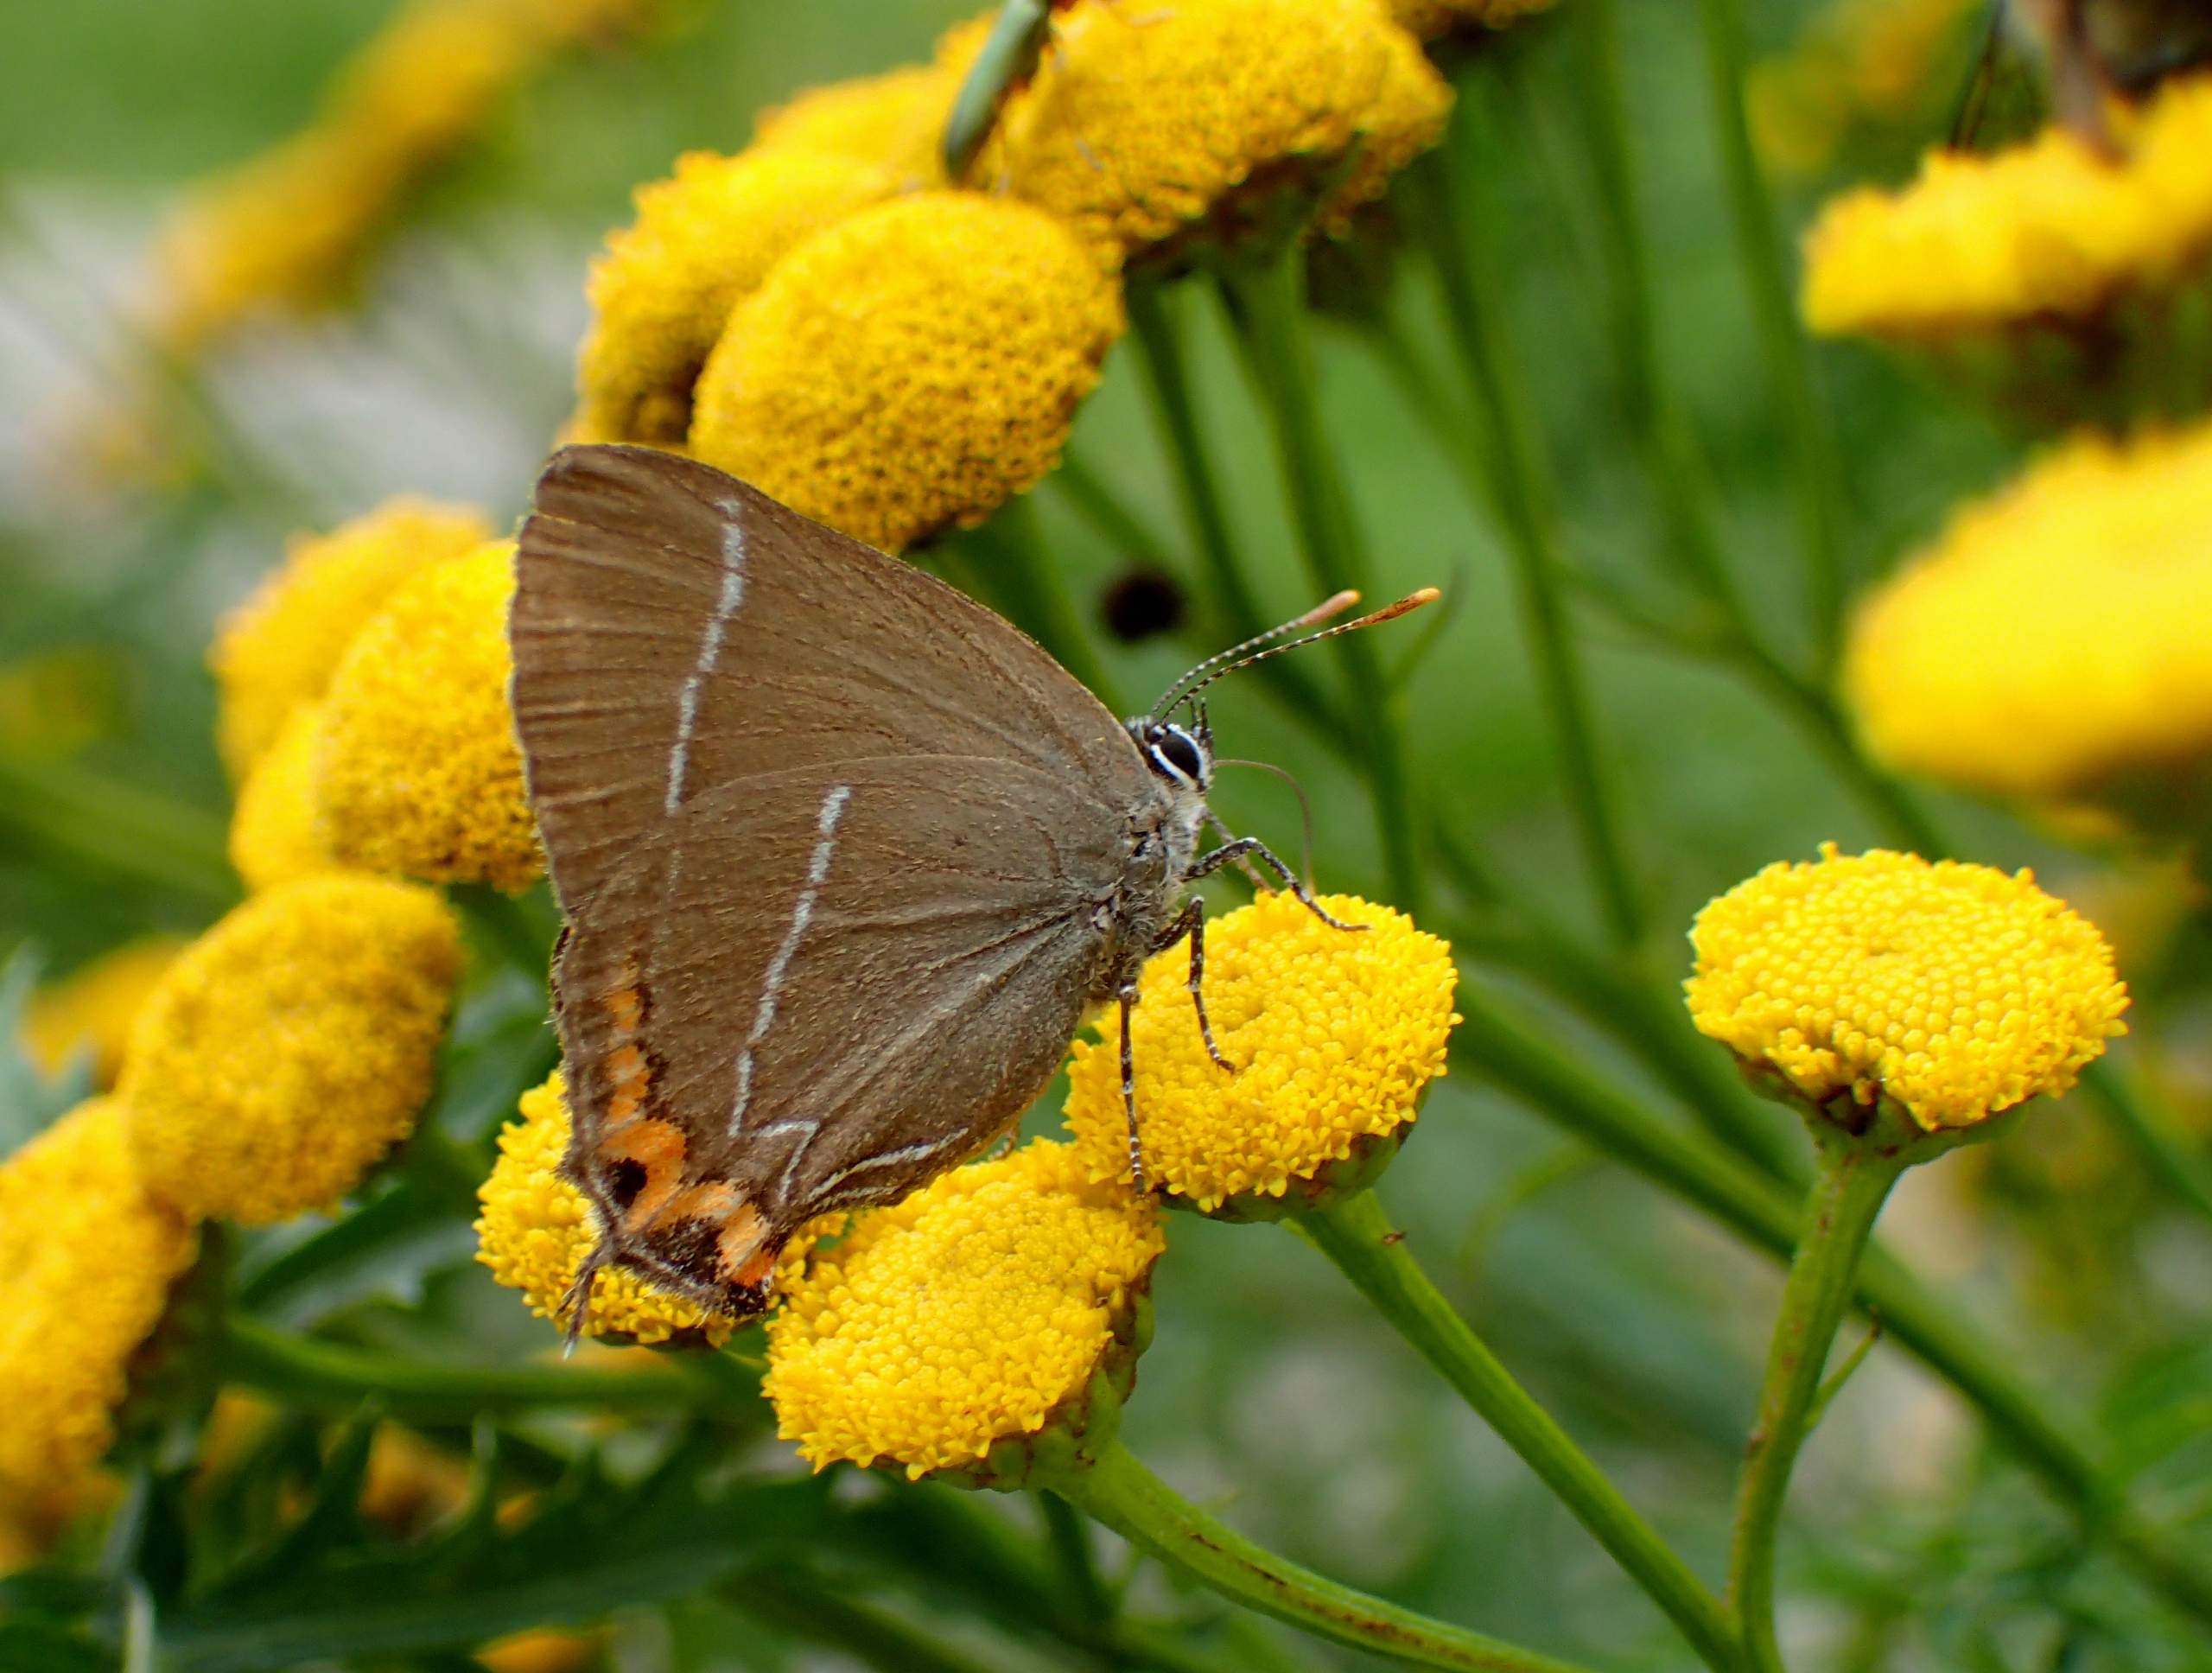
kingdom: Animalia
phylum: Arthropoda
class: Insecta
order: Lepidoptera
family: Lycaenidae
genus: Satyrium
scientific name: Satyrium w-album
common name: Det hvide W
